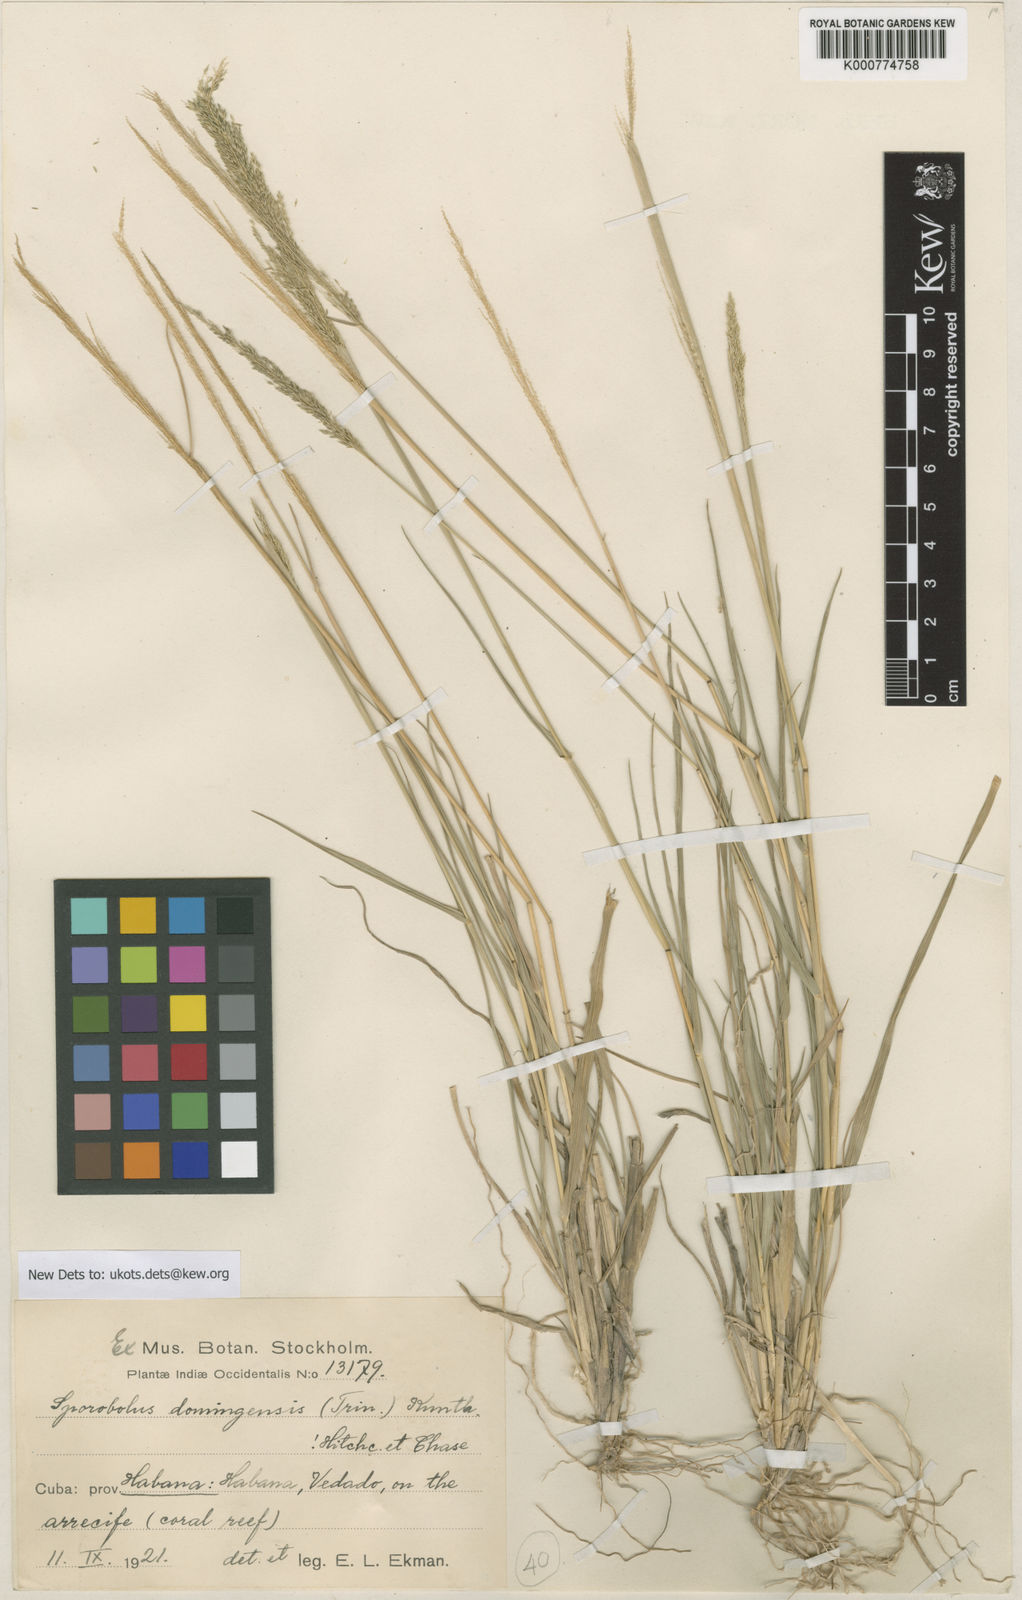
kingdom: Plantae
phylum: Tracheophyta
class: Liliopsida
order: Poales
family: Poaceae
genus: Sporobolus
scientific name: Sporobolus domingensis
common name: Coral dropseed
